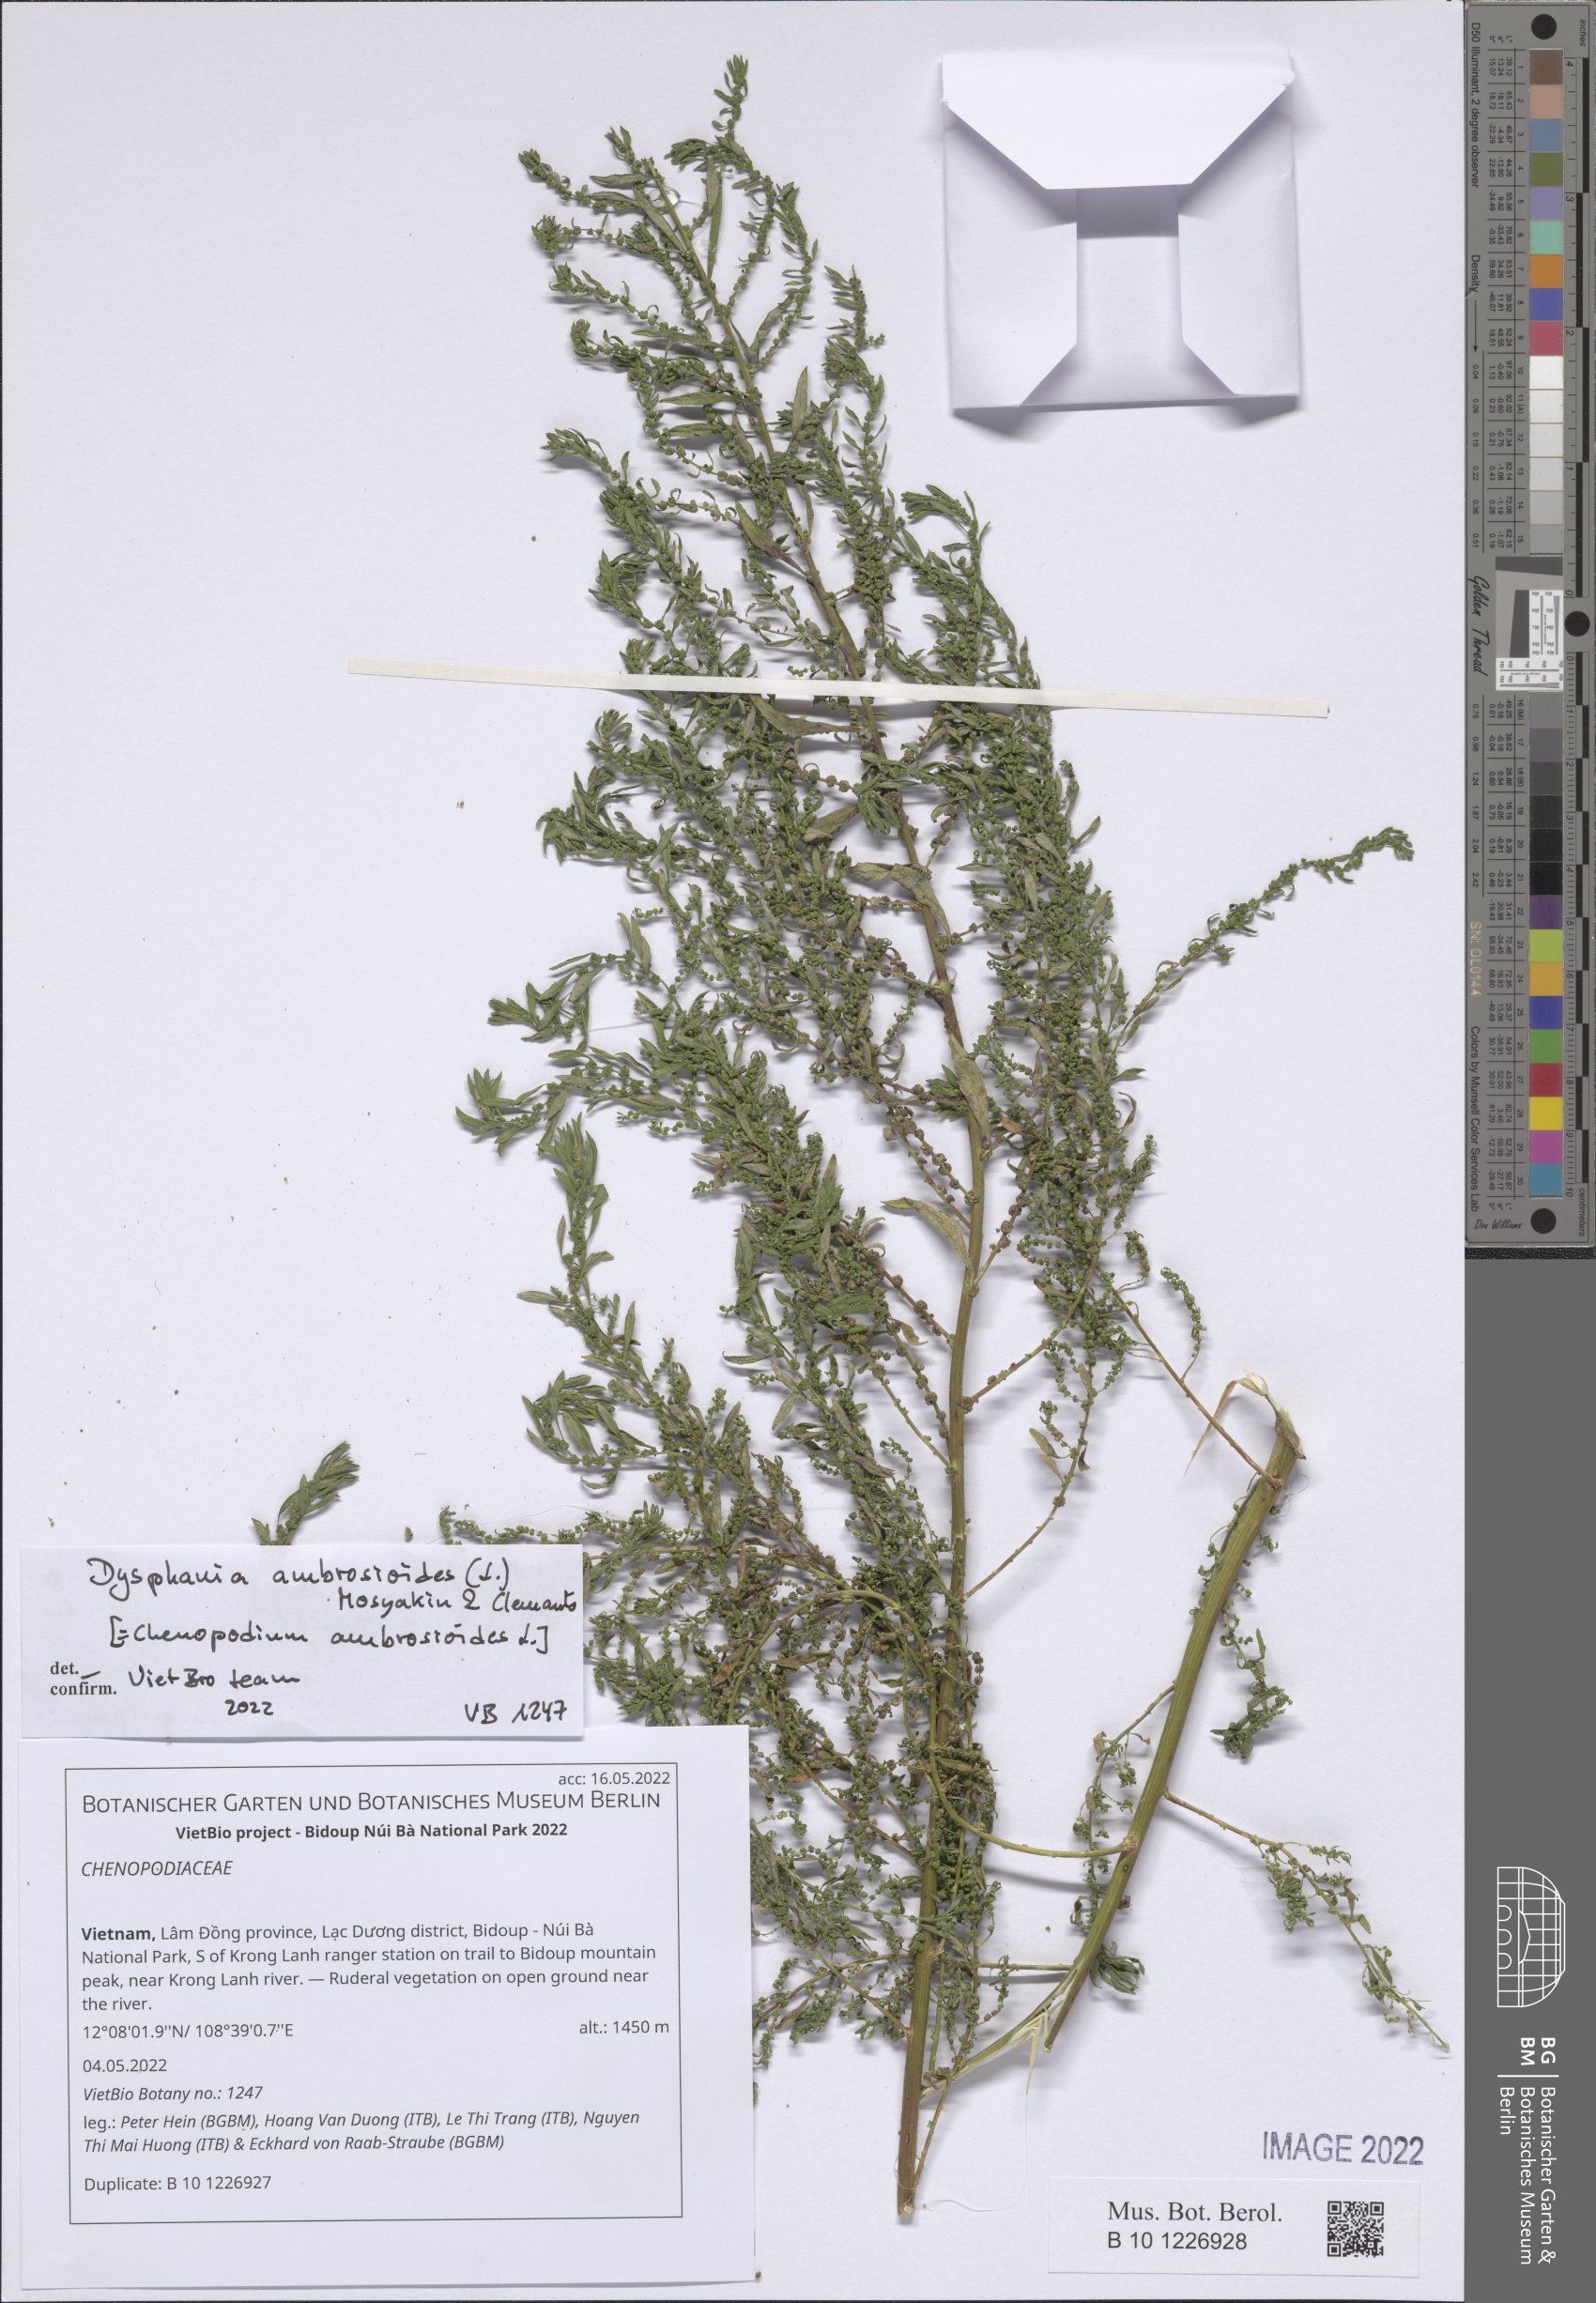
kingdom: Plantae
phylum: Tracheophyta
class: Magnoliopsida
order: Caryophyllales
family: Amaranthaceae
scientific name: Amaranthaceae
